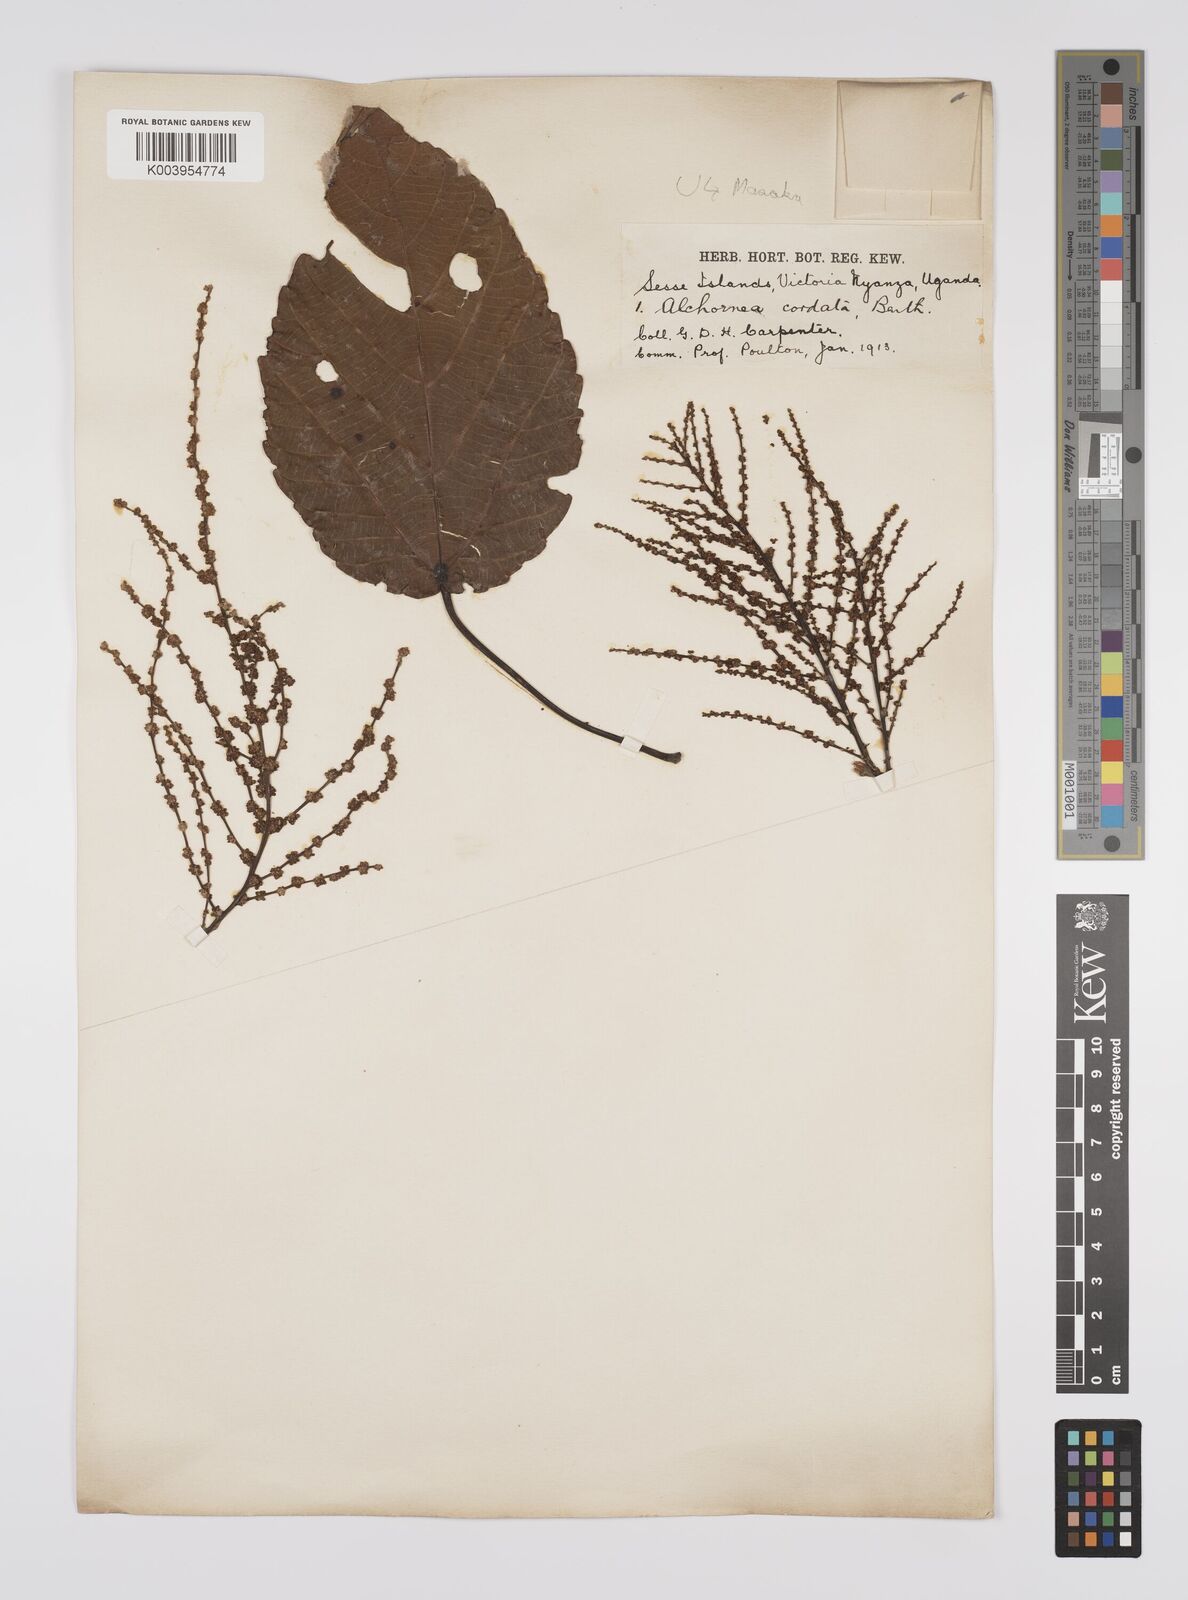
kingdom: Plantae
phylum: Tracheophyta
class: Magnoliopsida
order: Malpighiales
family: Euphorbiaceae
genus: Alchornea
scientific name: Alchornea cordifolia
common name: Christmasbush
